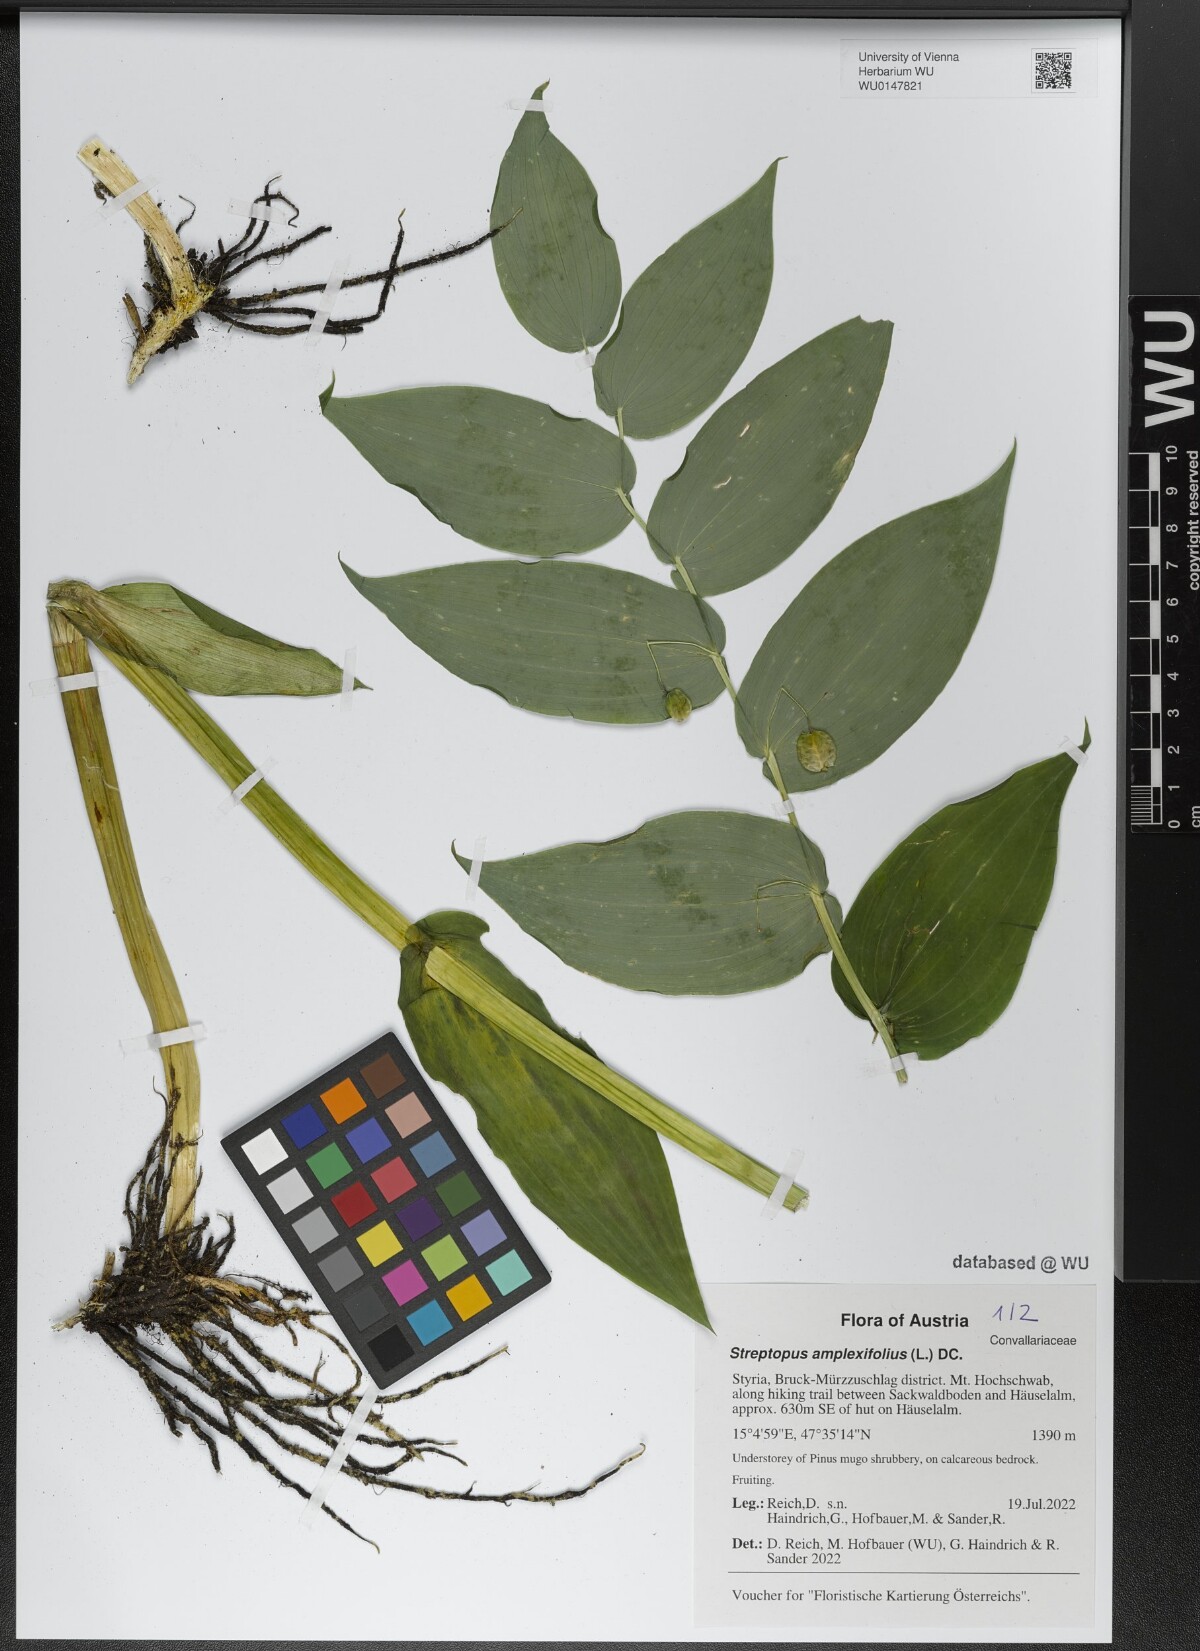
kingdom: Plantae
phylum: Tracheophyta
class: Liliopsida
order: Liliales
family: Liliaceae
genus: Streptopus
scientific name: Streptopus amplexifolius
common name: Clasp twisted stalk
